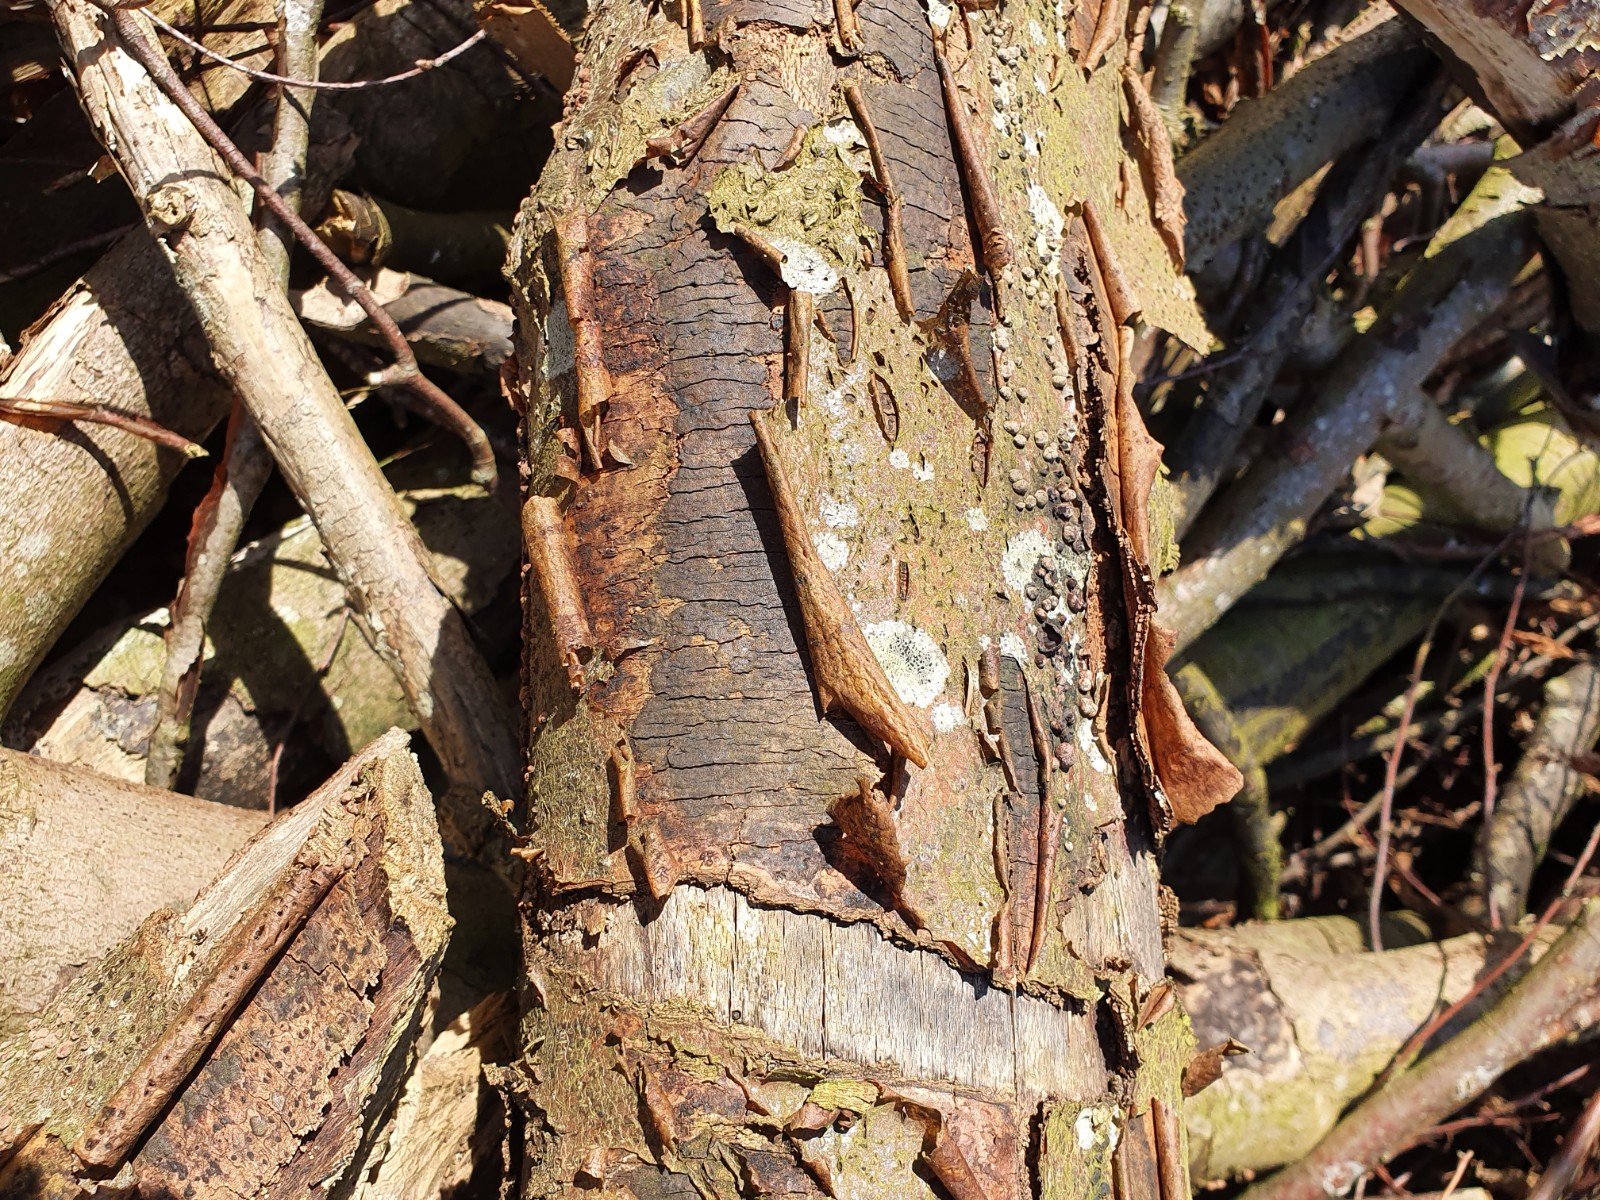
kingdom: Fungi
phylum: Ascomycota
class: Sordariomycetes
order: Xylariales
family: Diatrypaceae
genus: Diatrype
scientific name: Diatrype decorticata
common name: barksprænger-kulskorpe
